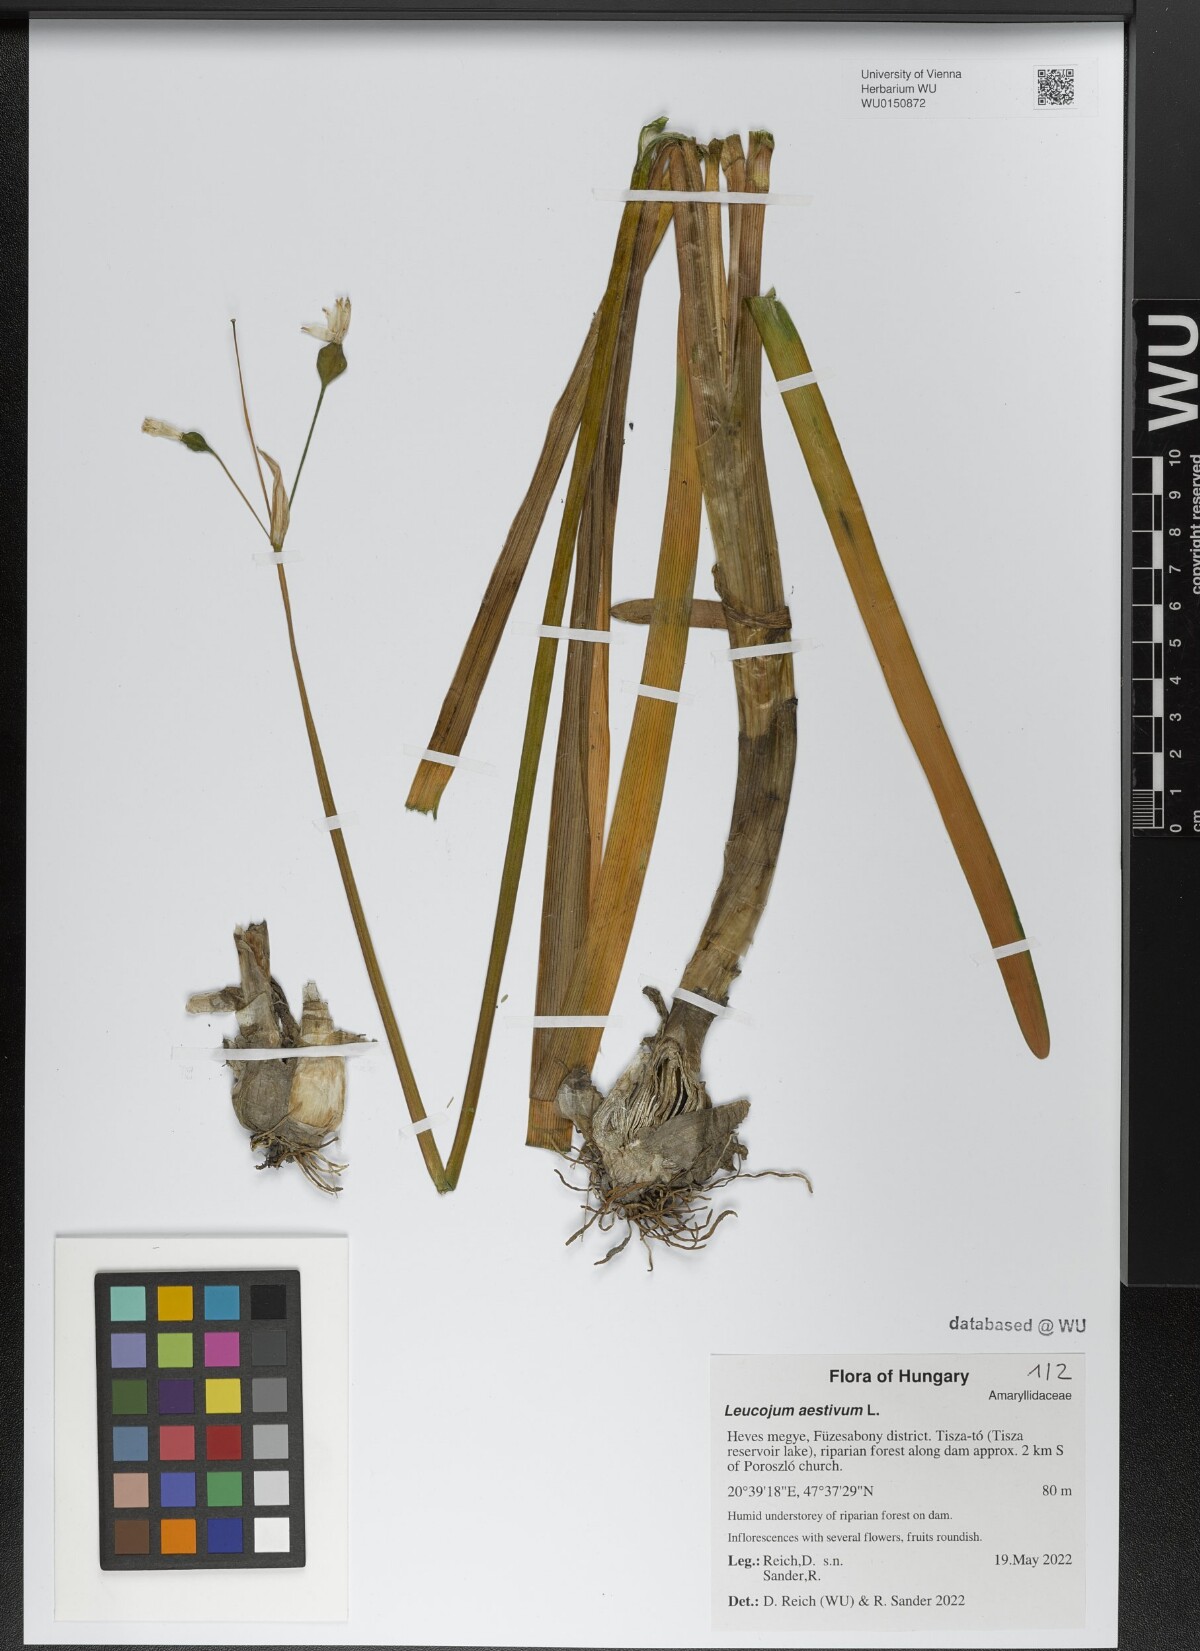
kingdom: Plantae
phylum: Tracheophyta
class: Liliopsida
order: Asparagales
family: Amaryllidaceae
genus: Leucojum
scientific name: Leucojum aestivum
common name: Summer snowflake
